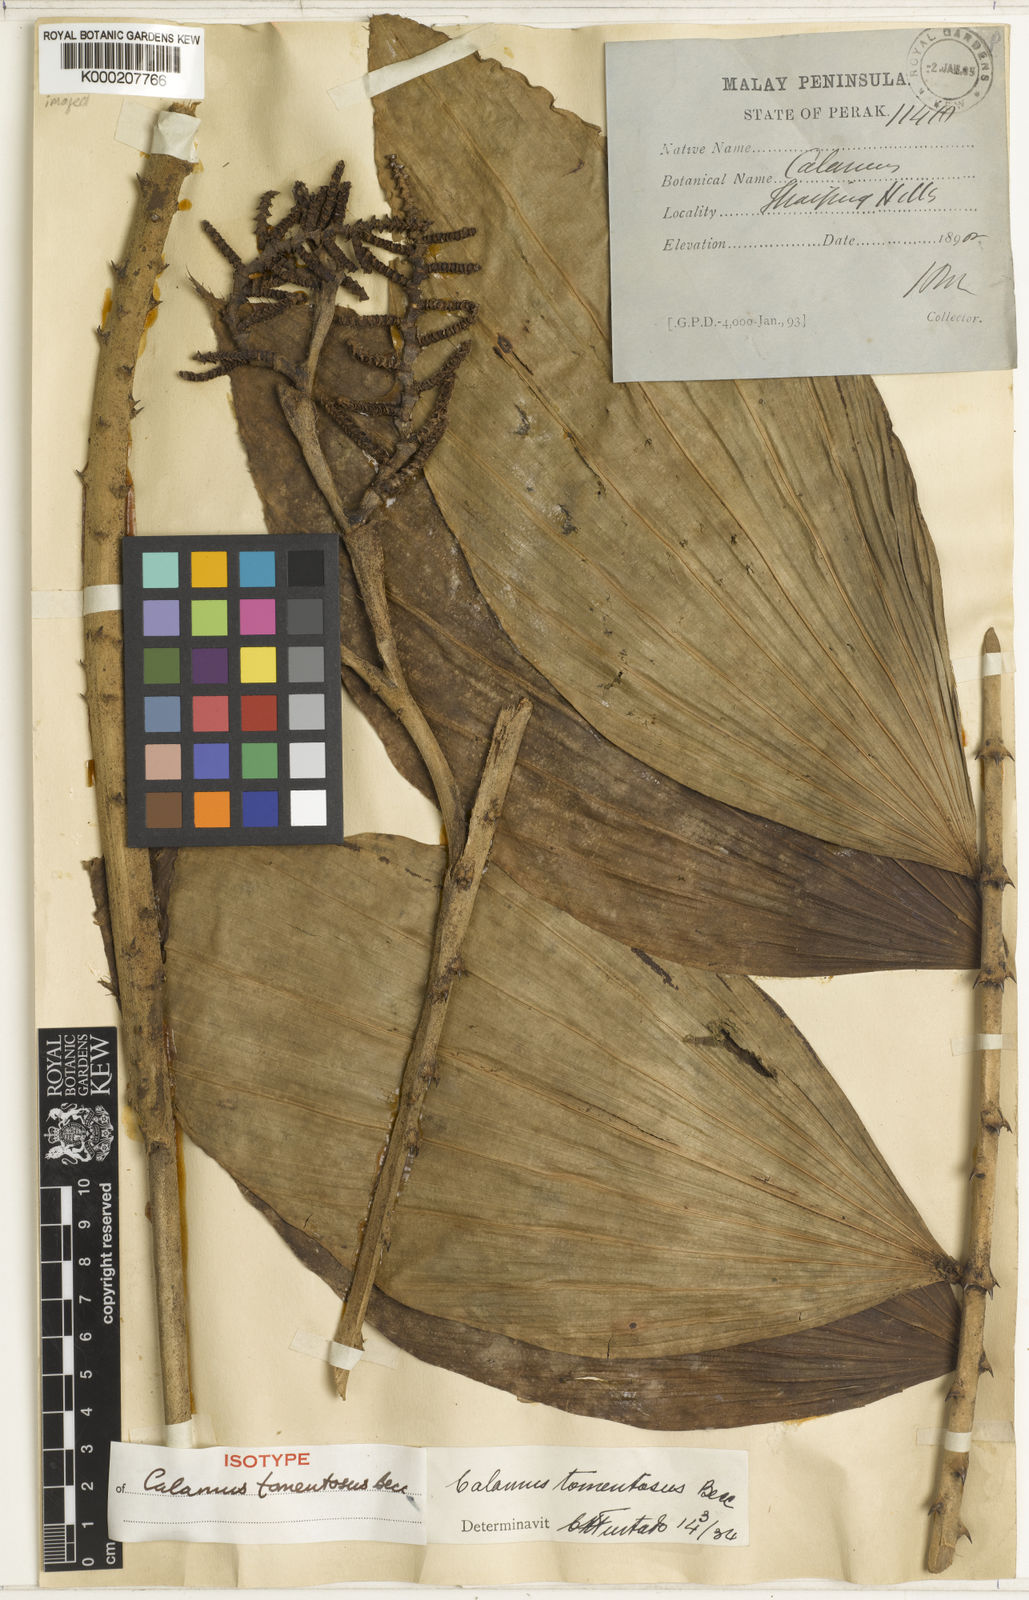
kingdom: Plantae
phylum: Tracheophyta
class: Liliopsida
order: Arecales
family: Arecaceae
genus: Calamus
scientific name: Calamus rhomboideus
